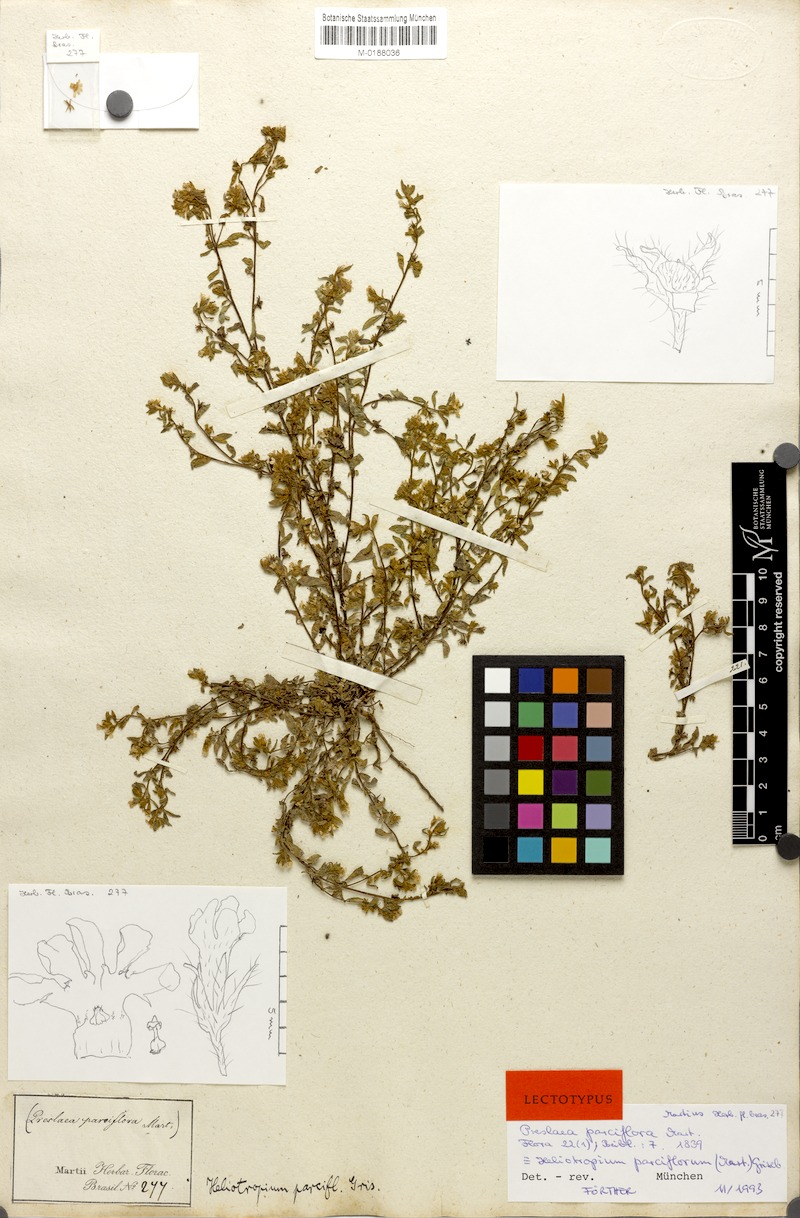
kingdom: Plantae
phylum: Tracheophyta
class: Magnoliopsida
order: Boraginales
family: Heliotropiaceae
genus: Euploca
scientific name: Euploca parciflora
